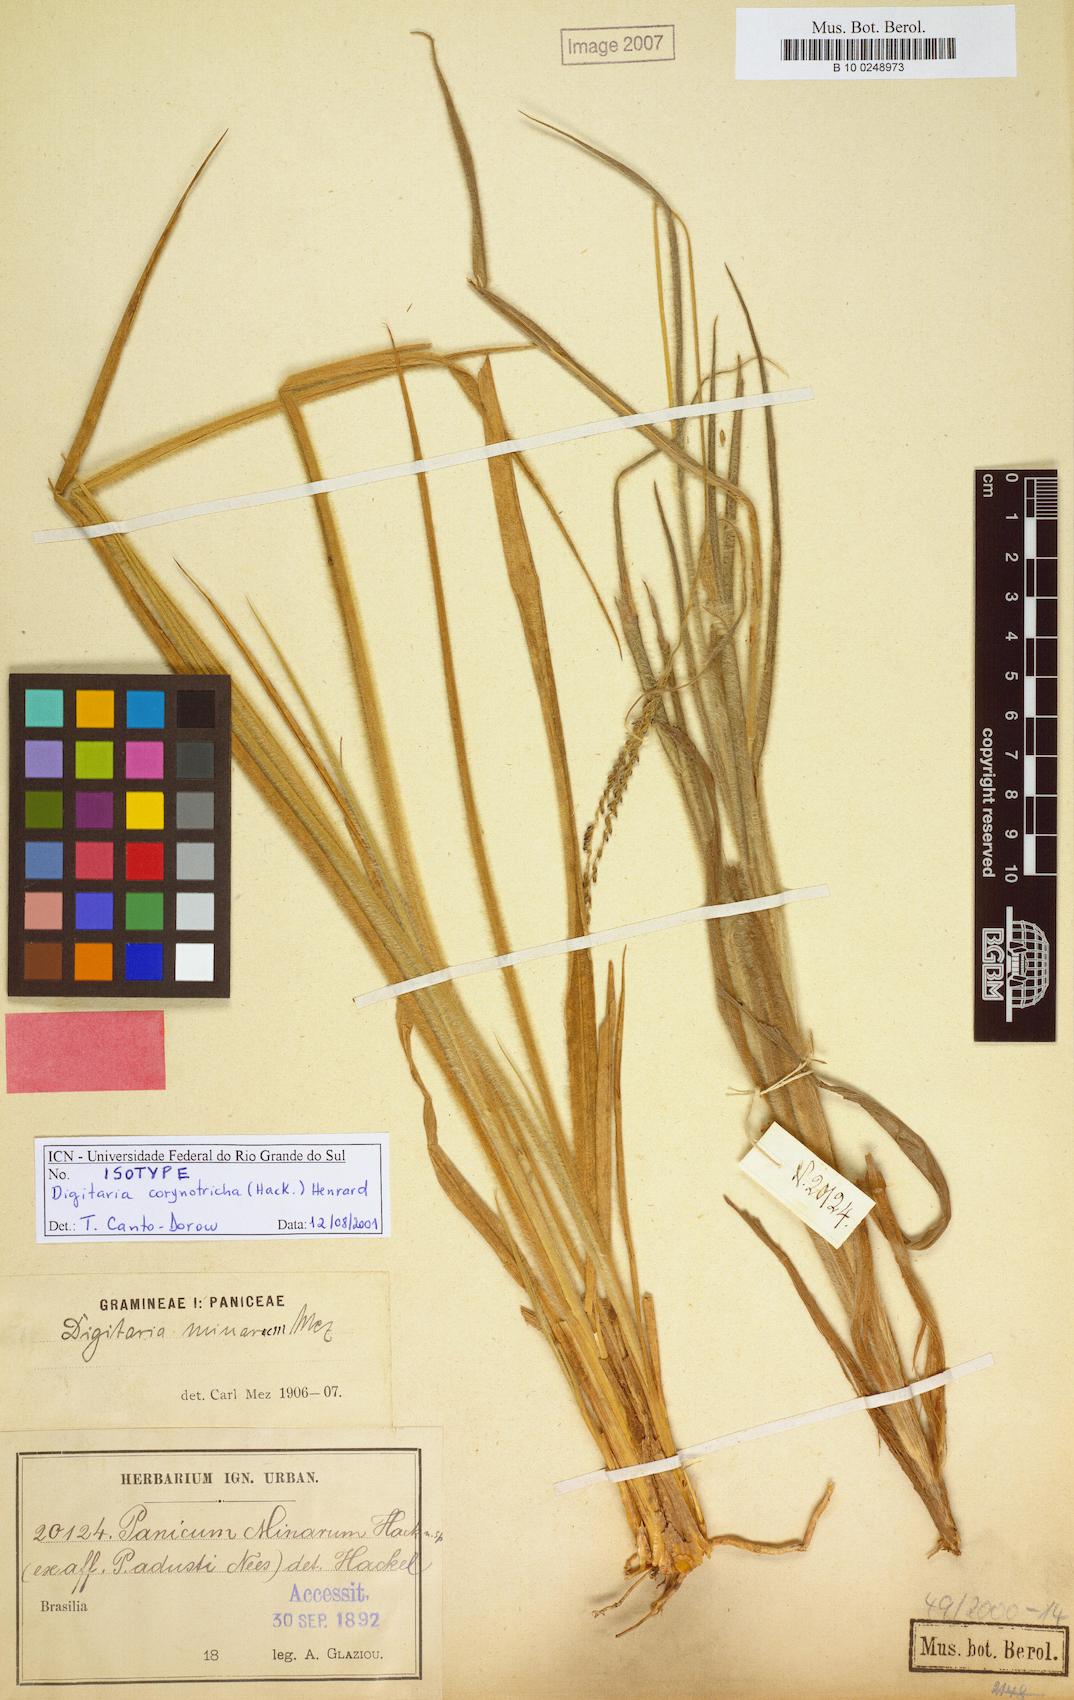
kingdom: Plantae
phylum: Tracheophyta
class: Liliopsida
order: Poales
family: Poaceae
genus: Oedochloa
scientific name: Oedochloa minarum
